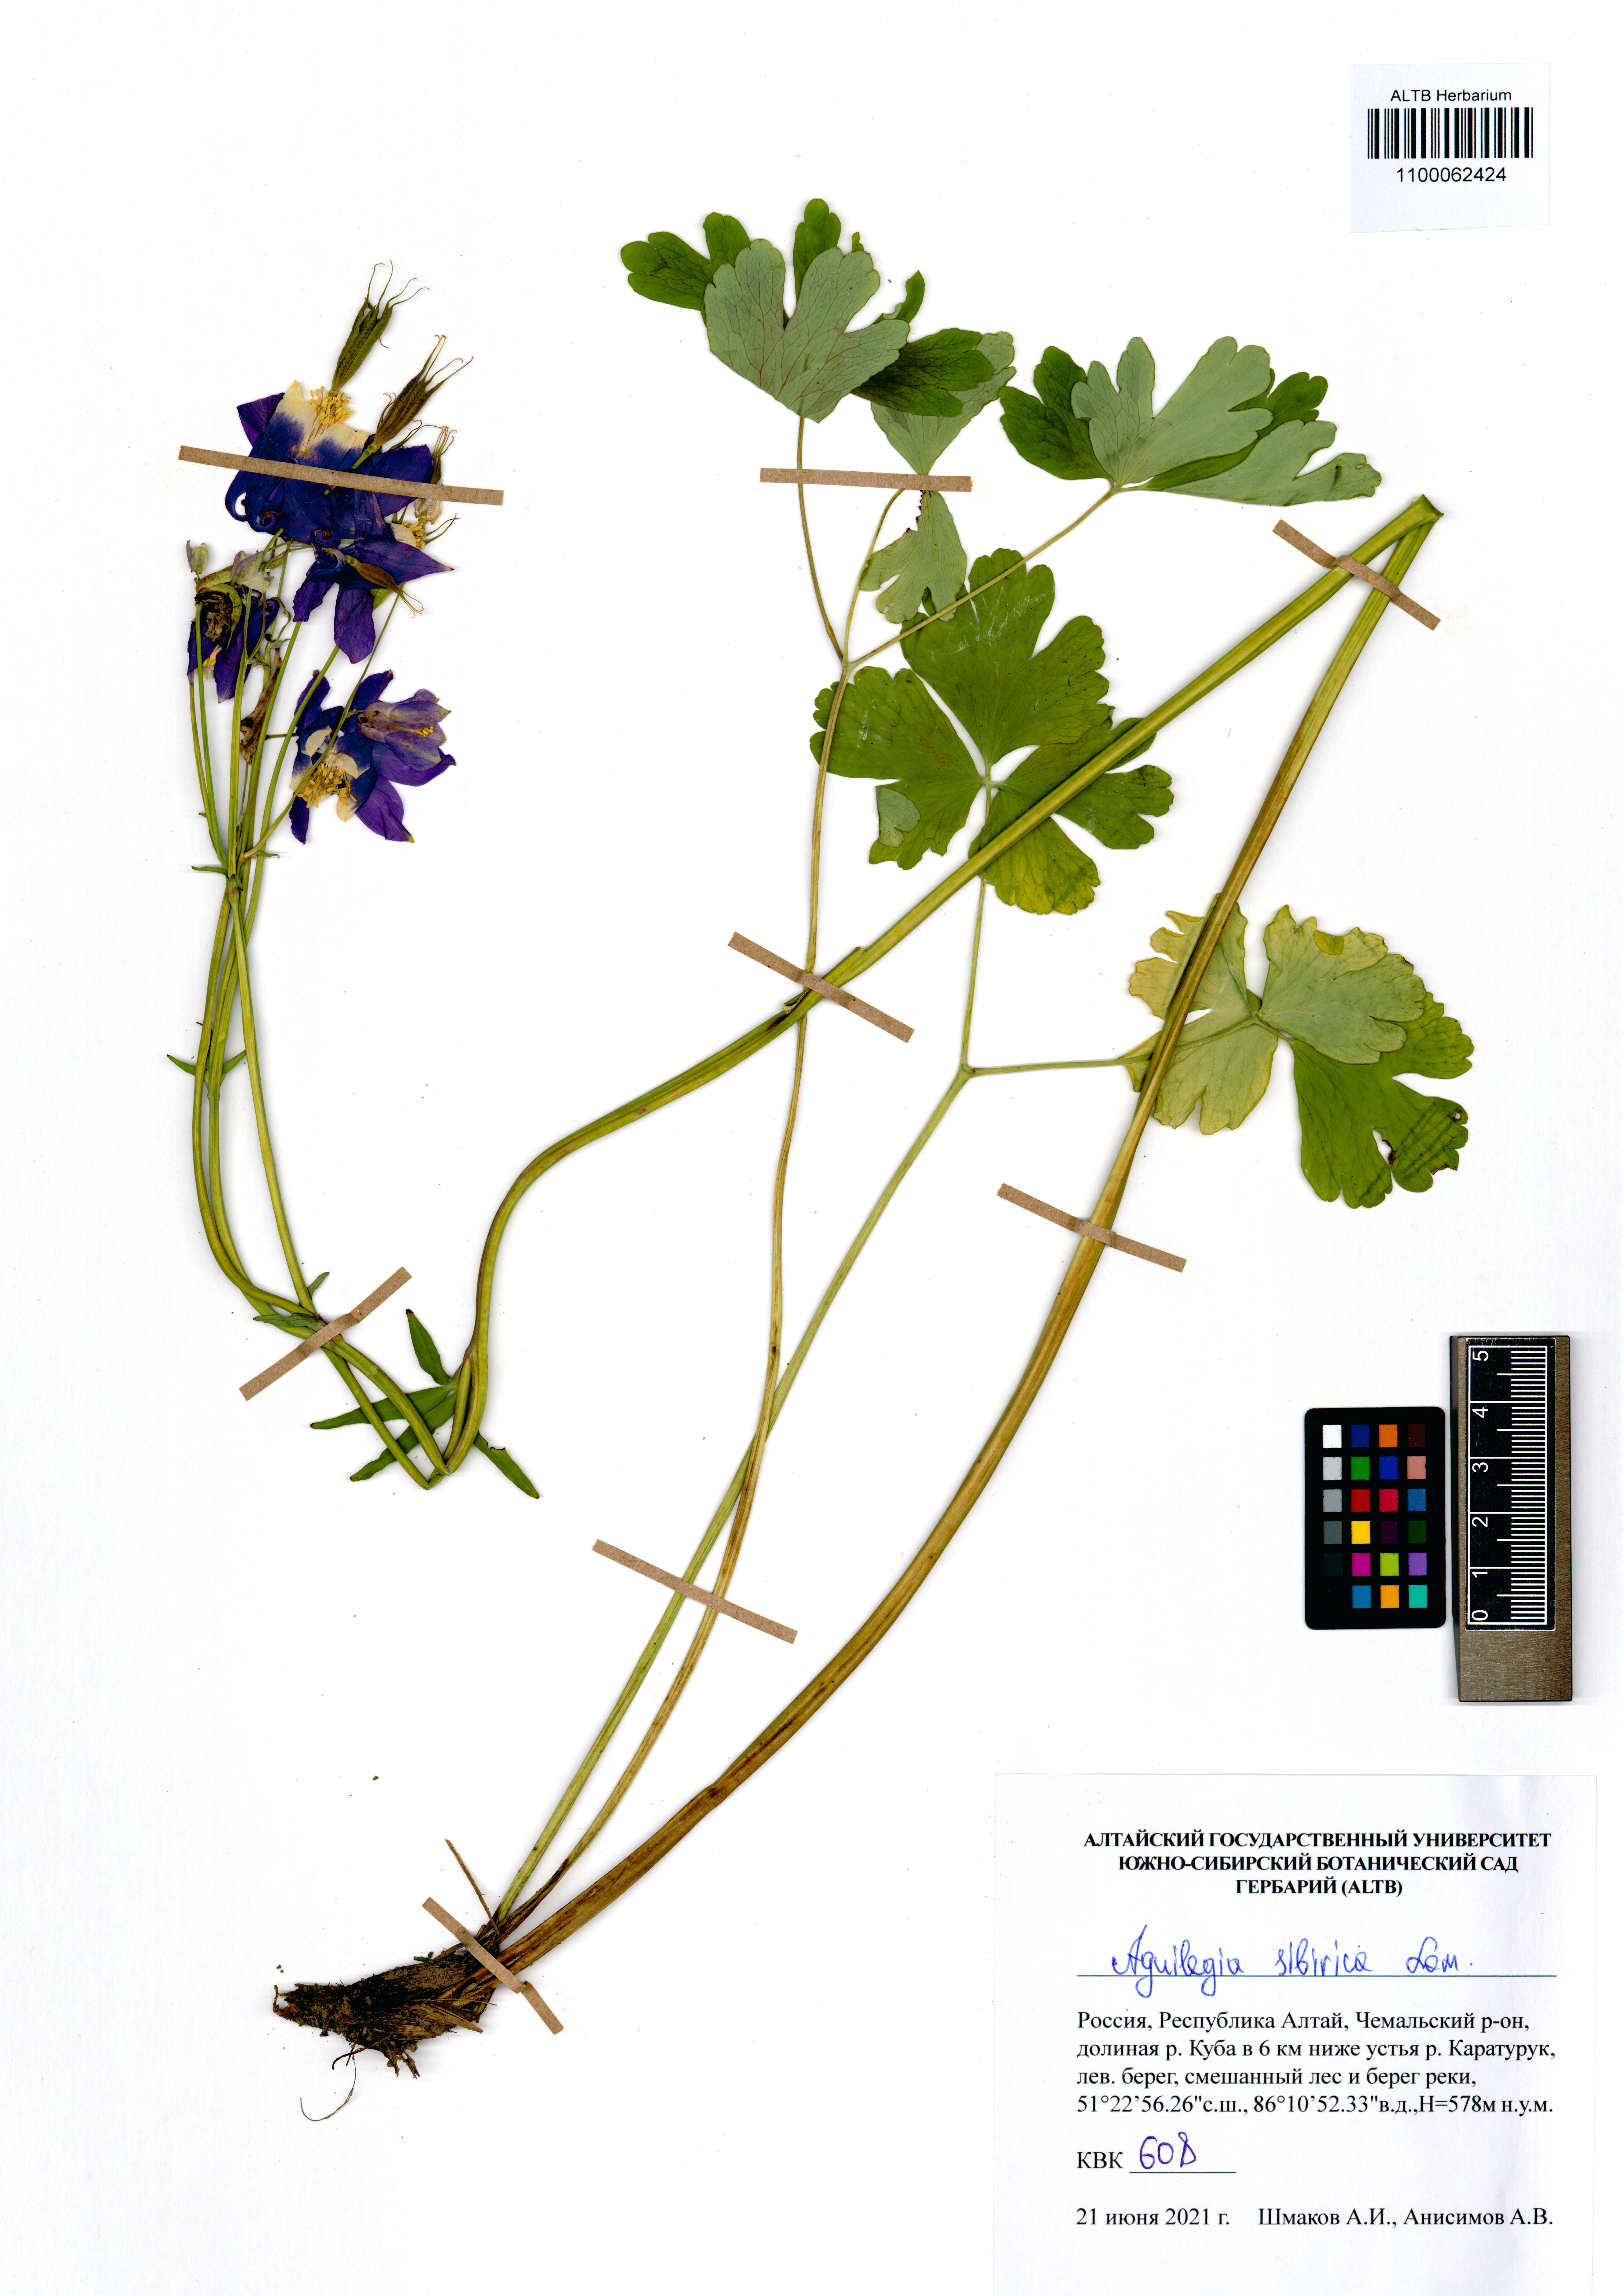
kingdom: Plantae
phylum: Tracheophyta
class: Magnoliopsida
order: Ranunculales
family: Ranunculaceae
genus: Aquilegia
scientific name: Aquilegia sibirica
